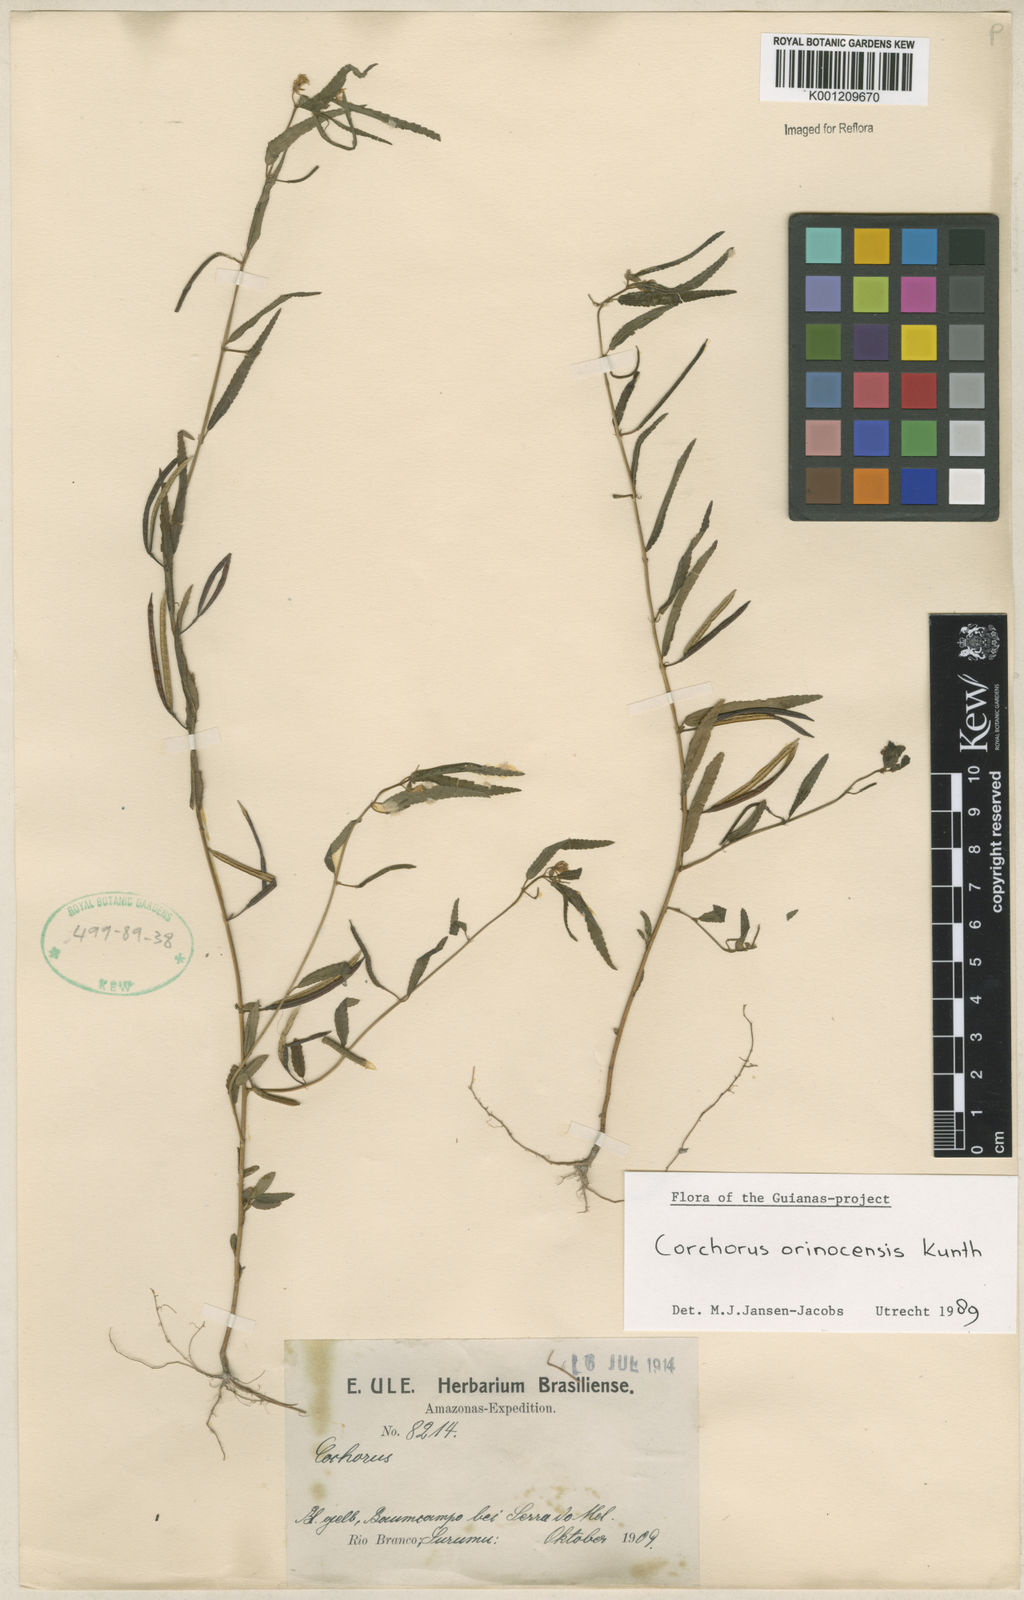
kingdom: Plantae
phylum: Tracheophyta
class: Magnoliopsida
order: Malvales
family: Malvaceae
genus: Corchorus
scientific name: Corchorus orinocensis
